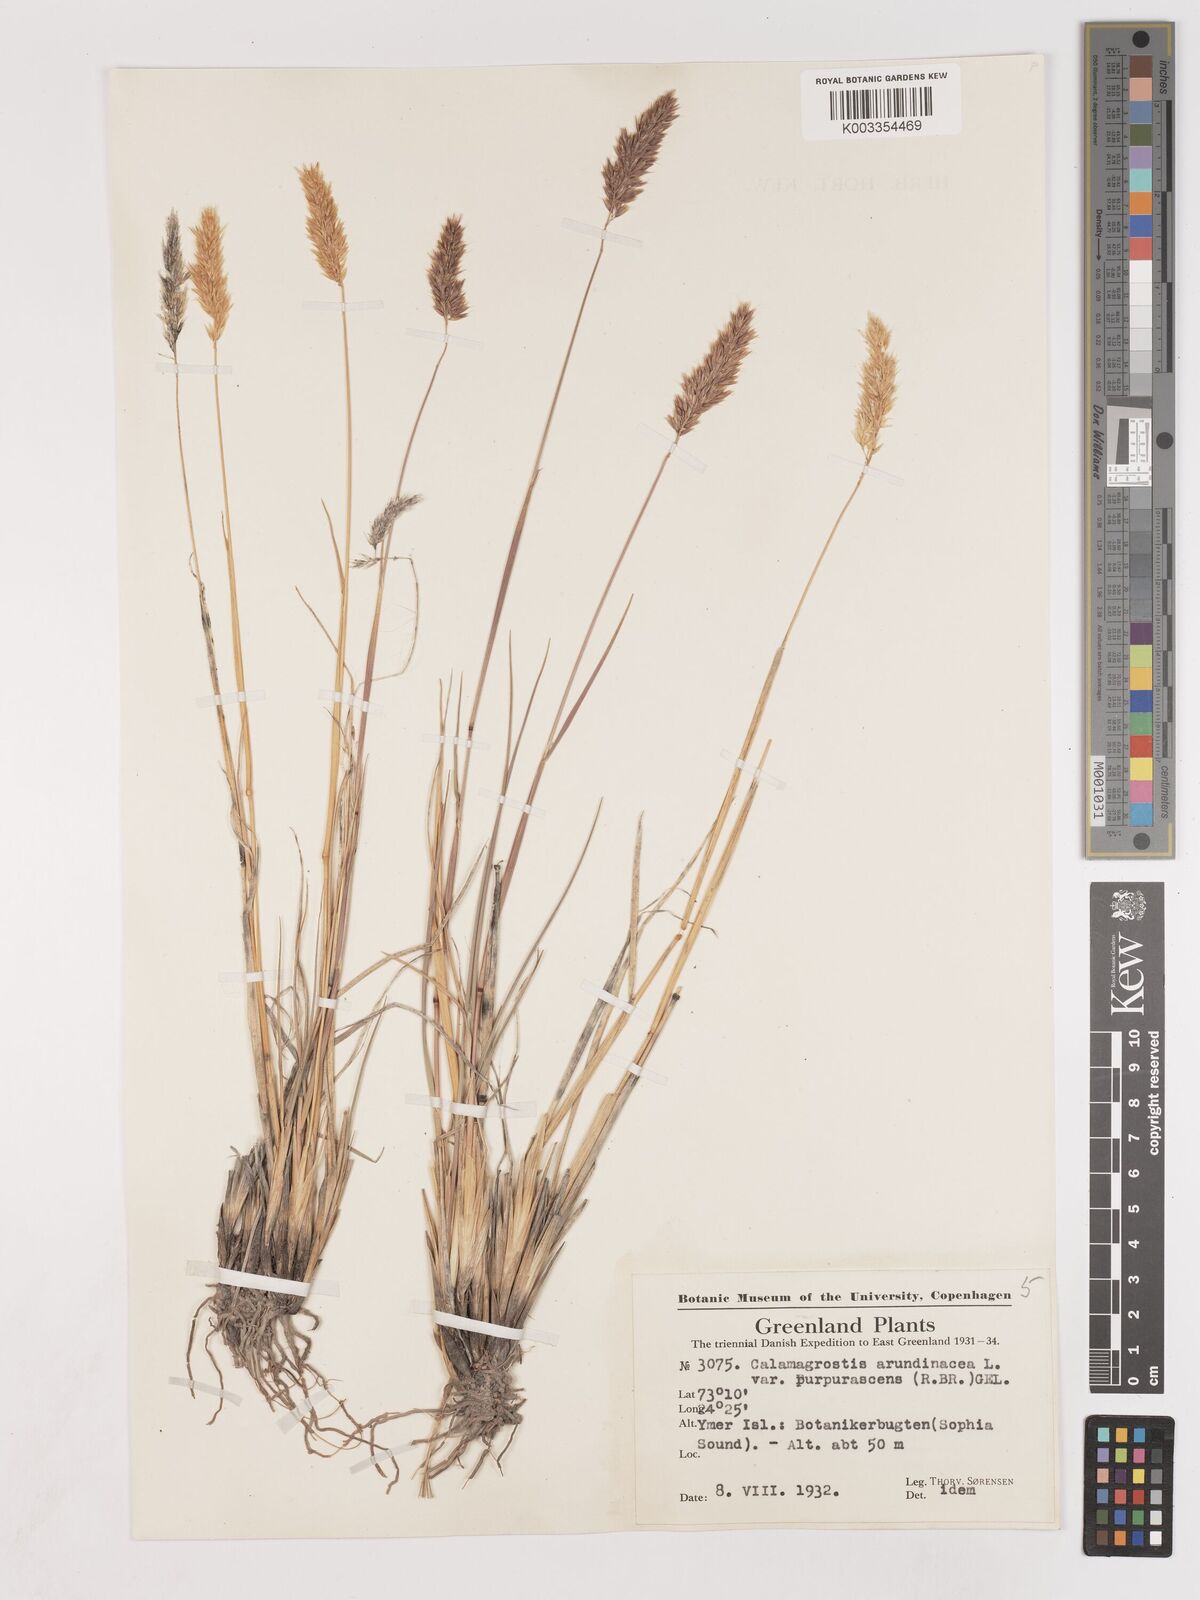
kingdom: Plantae
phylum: Tracheophyta
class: Liliopsida
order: Poales
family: Poaceae
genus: Calamagrostis
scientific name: Calamagrostis purpurascens
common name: Purple reedgrass
